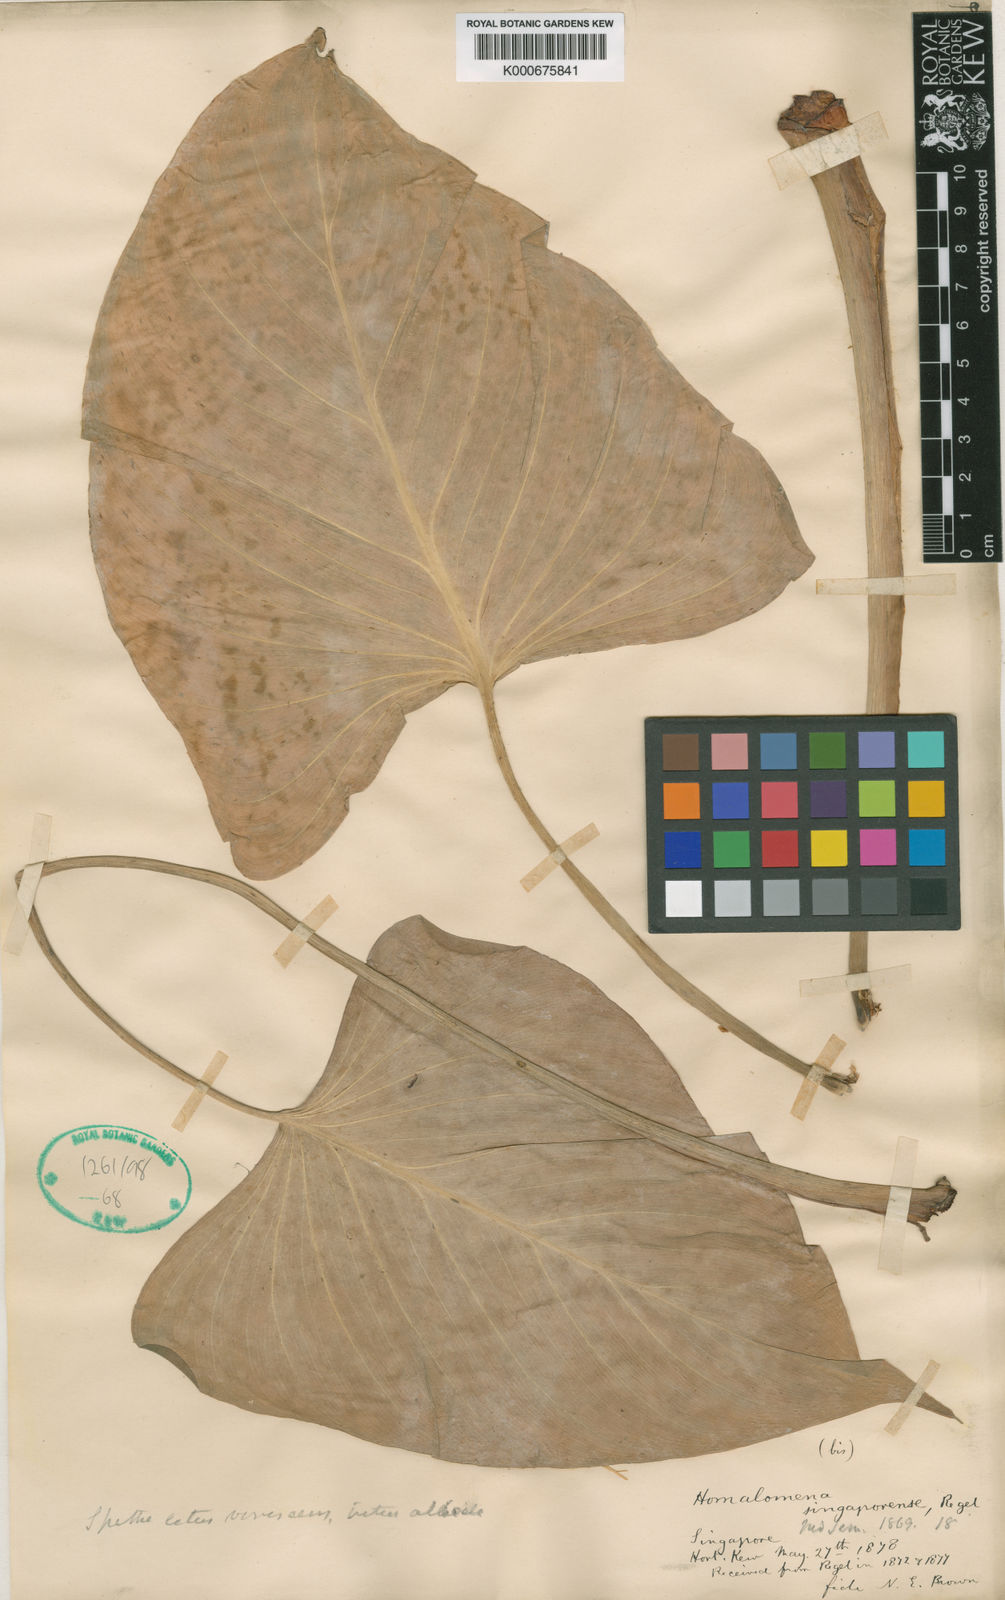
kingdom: Plantae
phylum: Tracheophyta
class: Liliopsida
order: Alismatales
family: Araceae
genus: Homalomena
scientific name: Homalomena singaporensis
